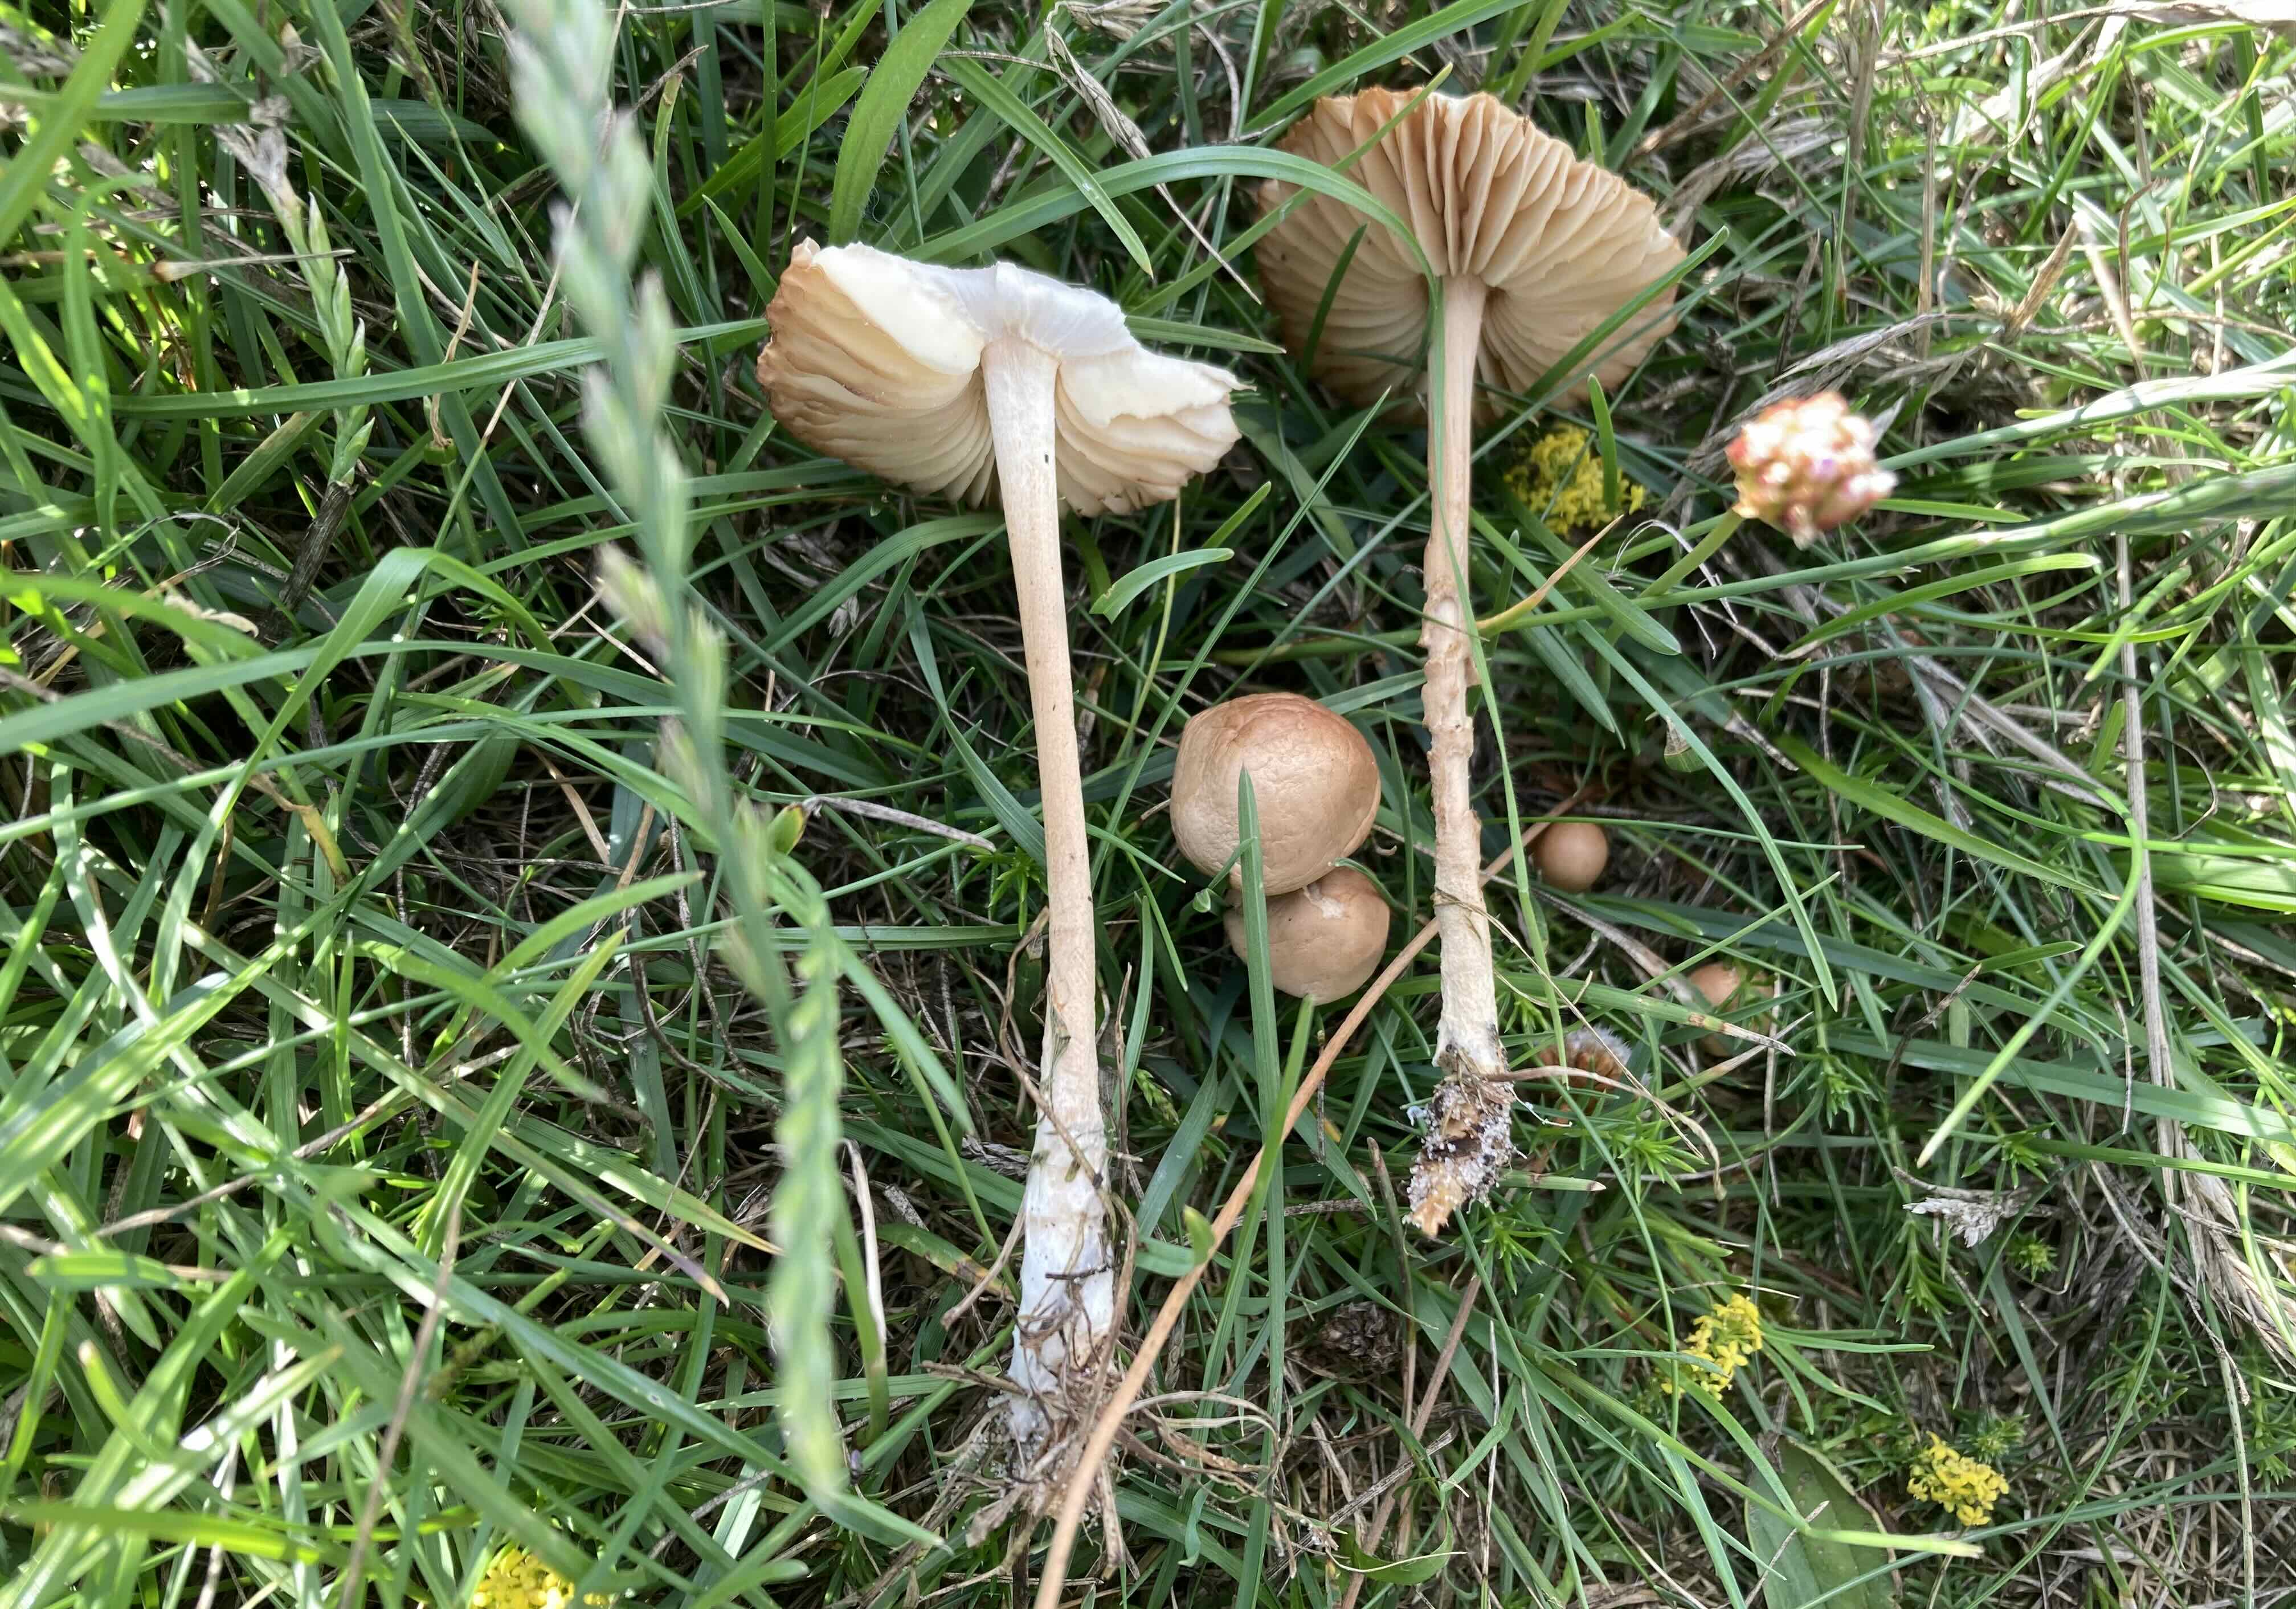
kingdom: Fungi
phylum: Basidiomycota
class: Agaricomycetes
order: Agaricales
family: Marasmiaceae
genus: Marasmius
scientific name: Marasmius oreades
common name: elledans-bruskhat
